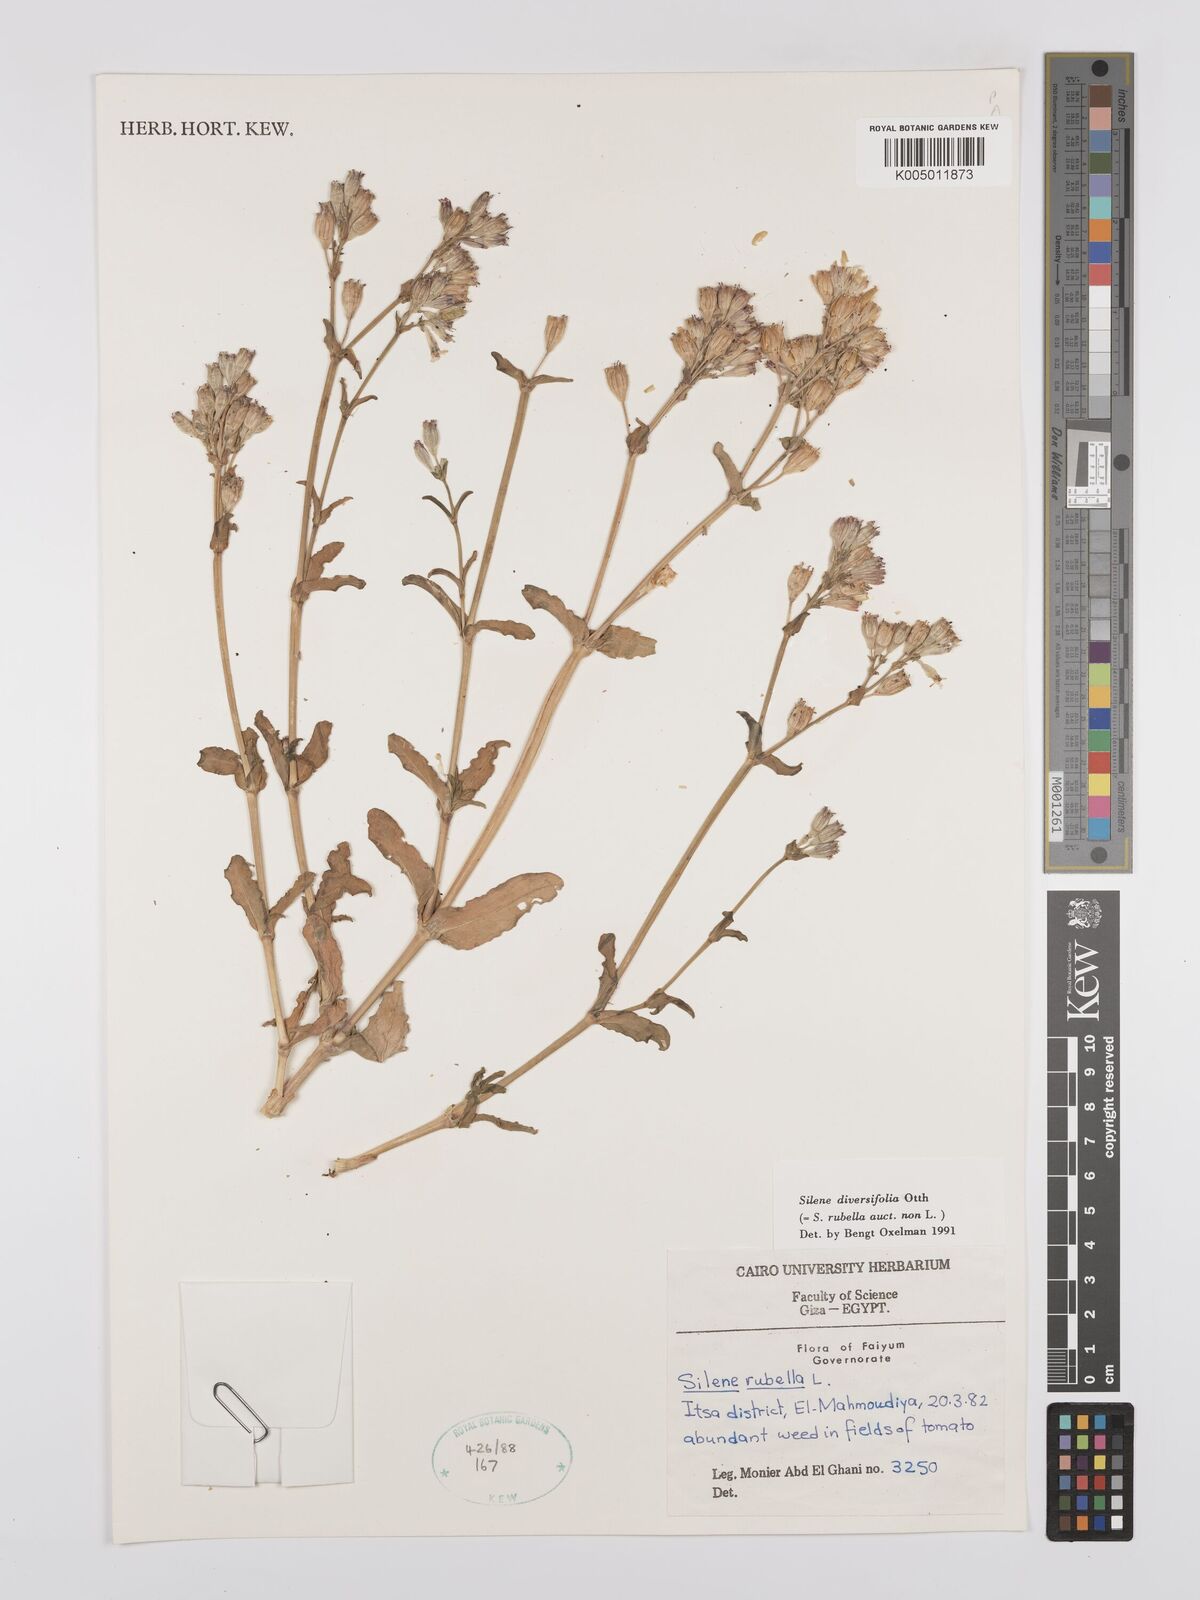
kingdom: Plantae
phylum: Tracheophyta
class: Magnoliopsida
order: Caryophyllales
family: Caryophyllaceae
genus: Silene
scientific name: Silene rubella
